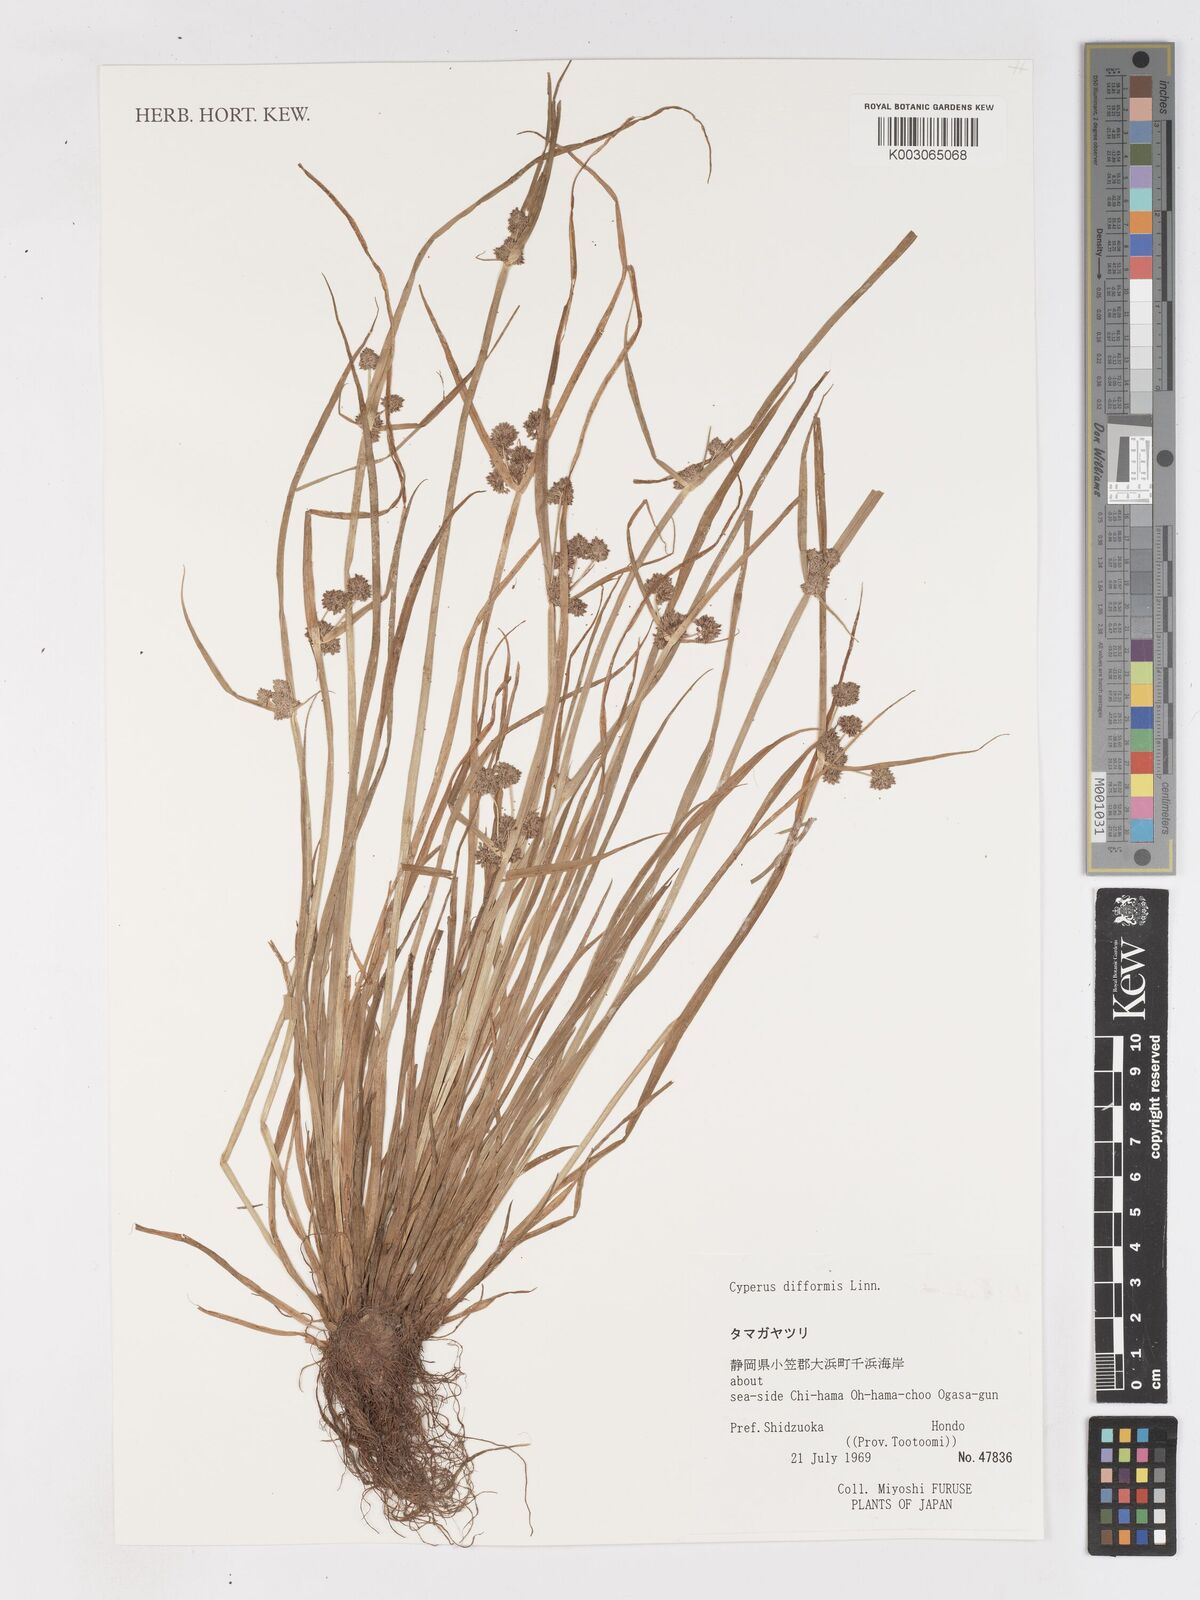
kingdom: Plantae
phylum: Tracheophyta
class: Liliopsida
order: Poales
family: Cyperaceae
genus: Cyperus
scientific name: Cyperus difformis
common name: Variable flatsedge
